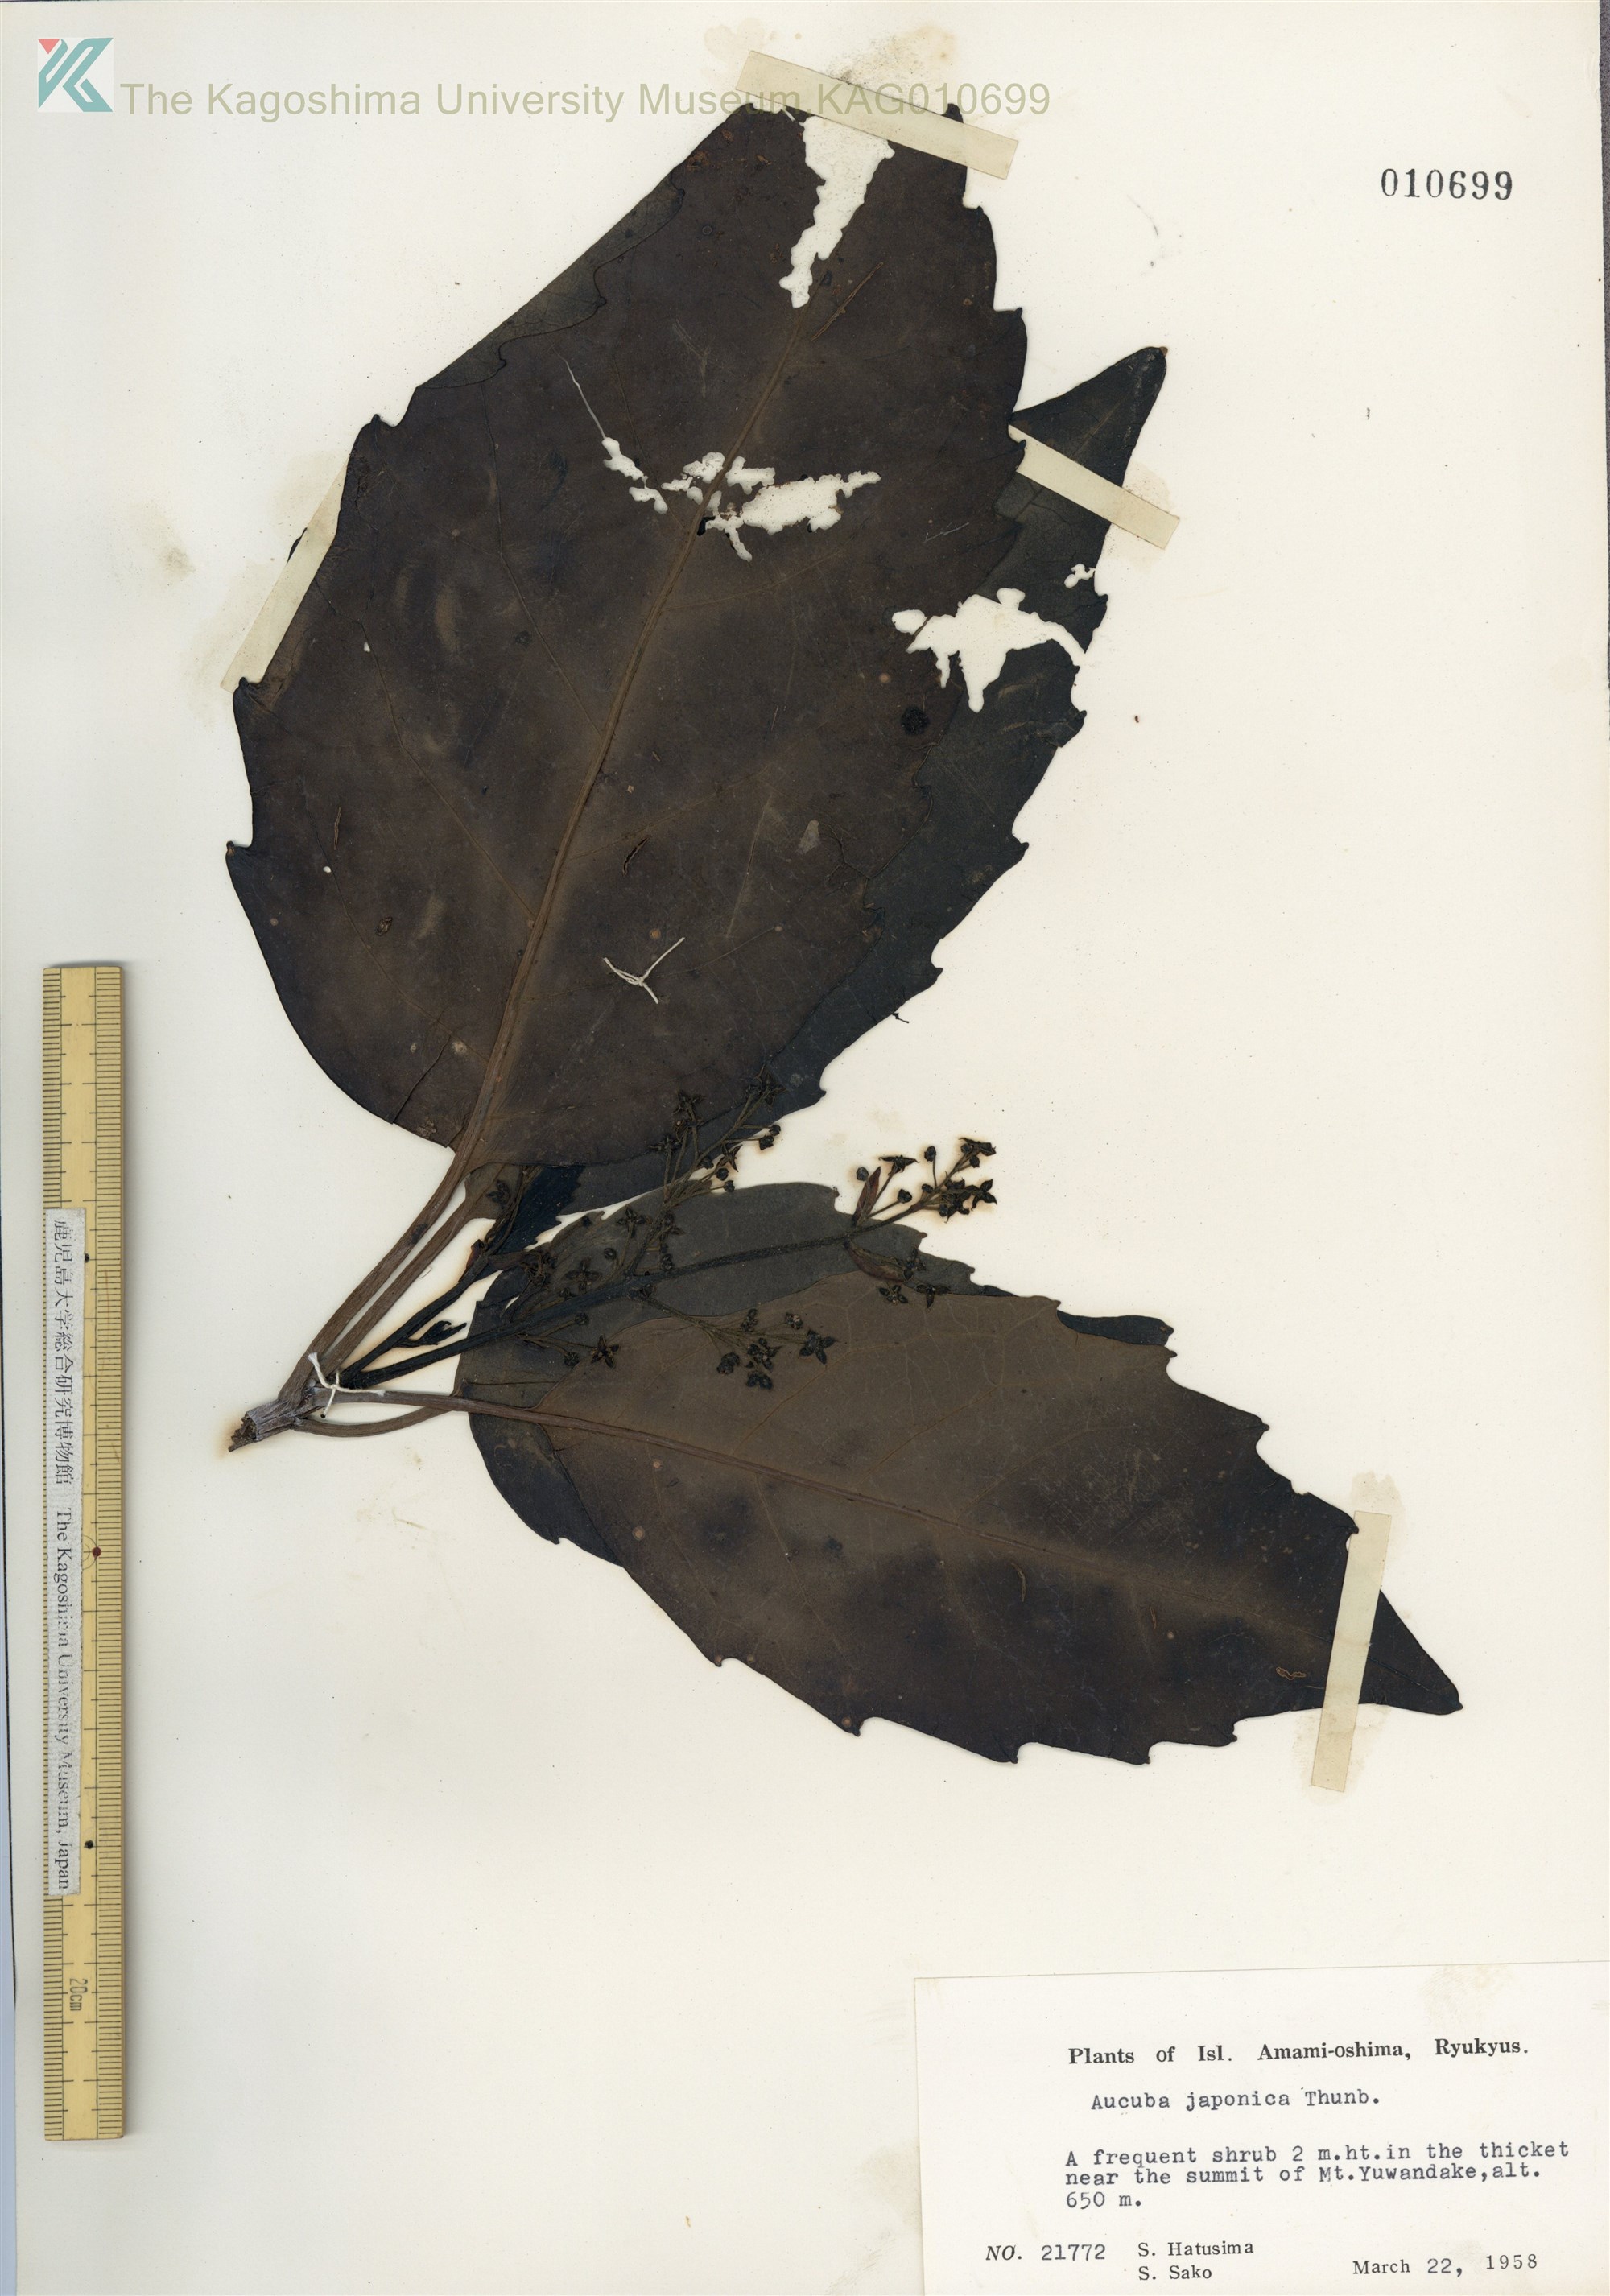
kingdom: Plantae
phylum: Tracheophyta
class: Magnoliopsida
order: Garryales
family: Garryaceae
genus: Aucuba
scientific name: Aucuba japonica
